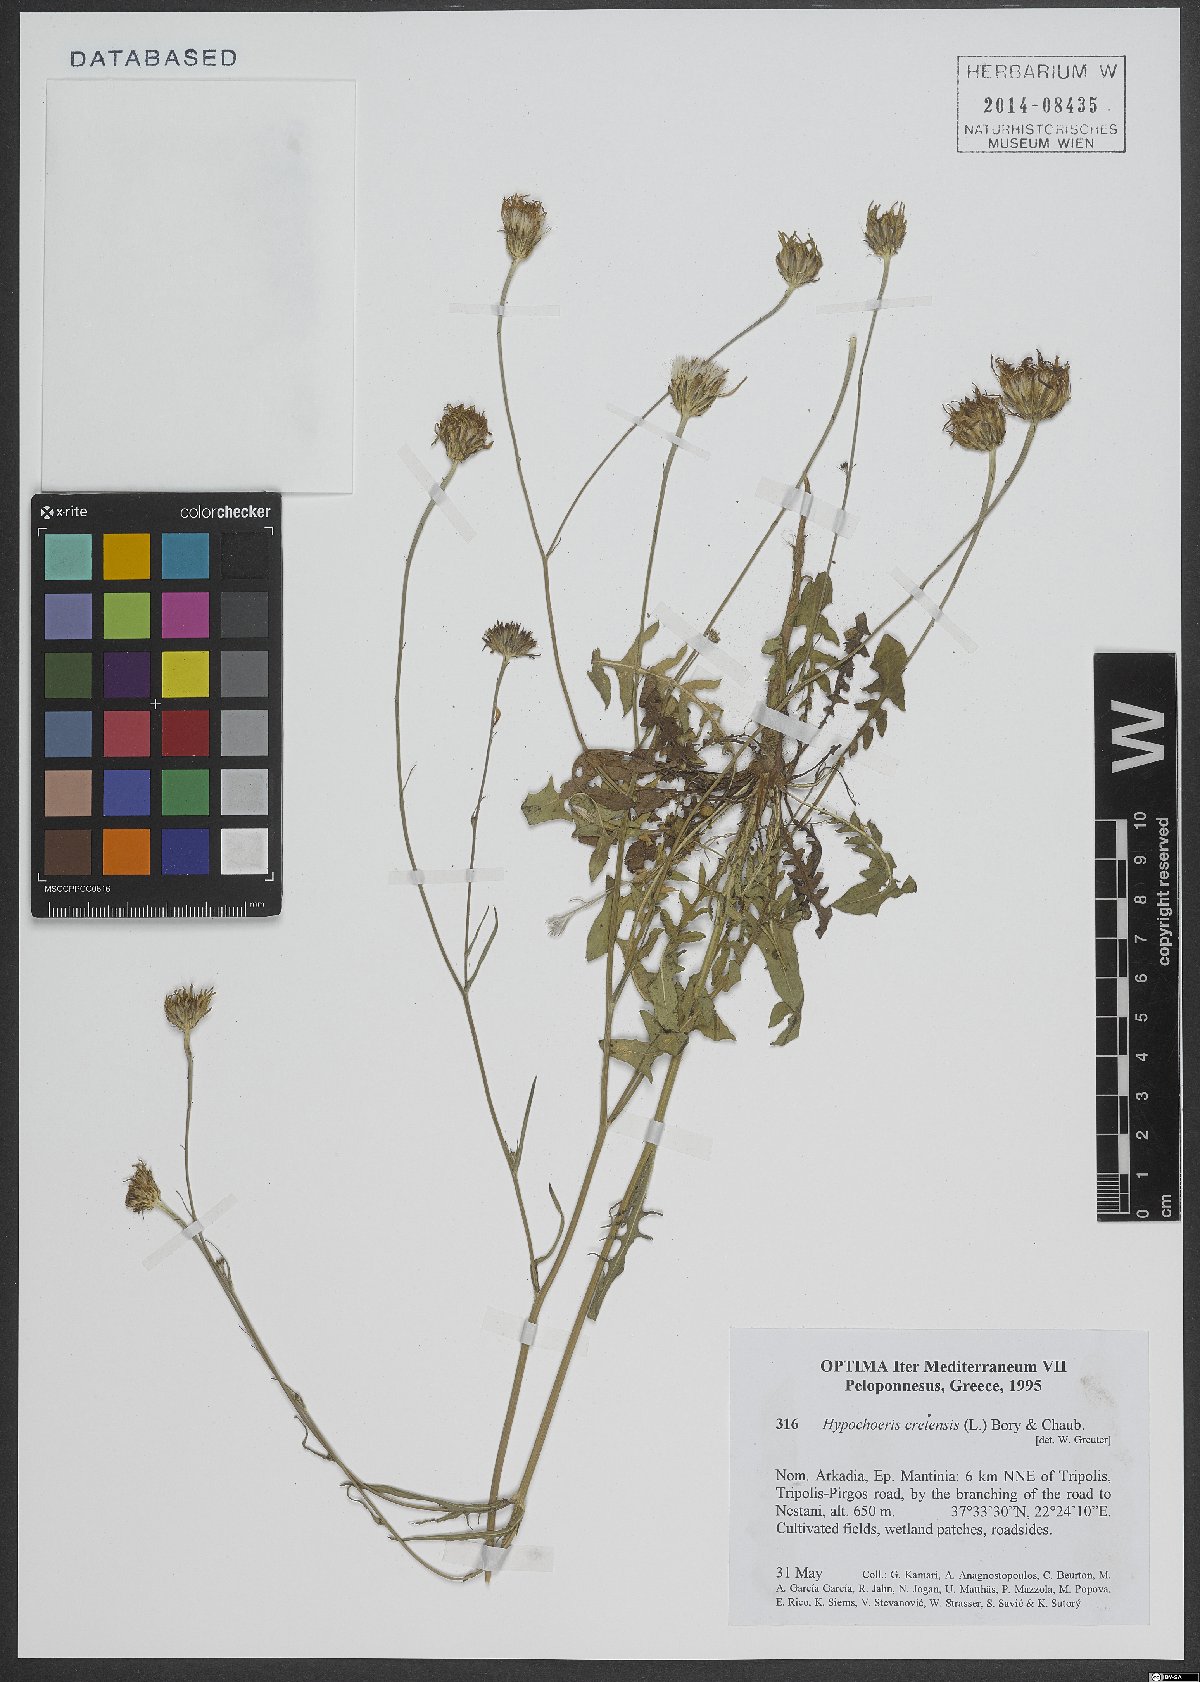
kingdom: Plantae
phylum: Tracheophyta
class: Magnoliopsida
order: Asterales
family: Asteraceae
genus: Hypochaeris
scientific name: Hypochaeris cretensis
